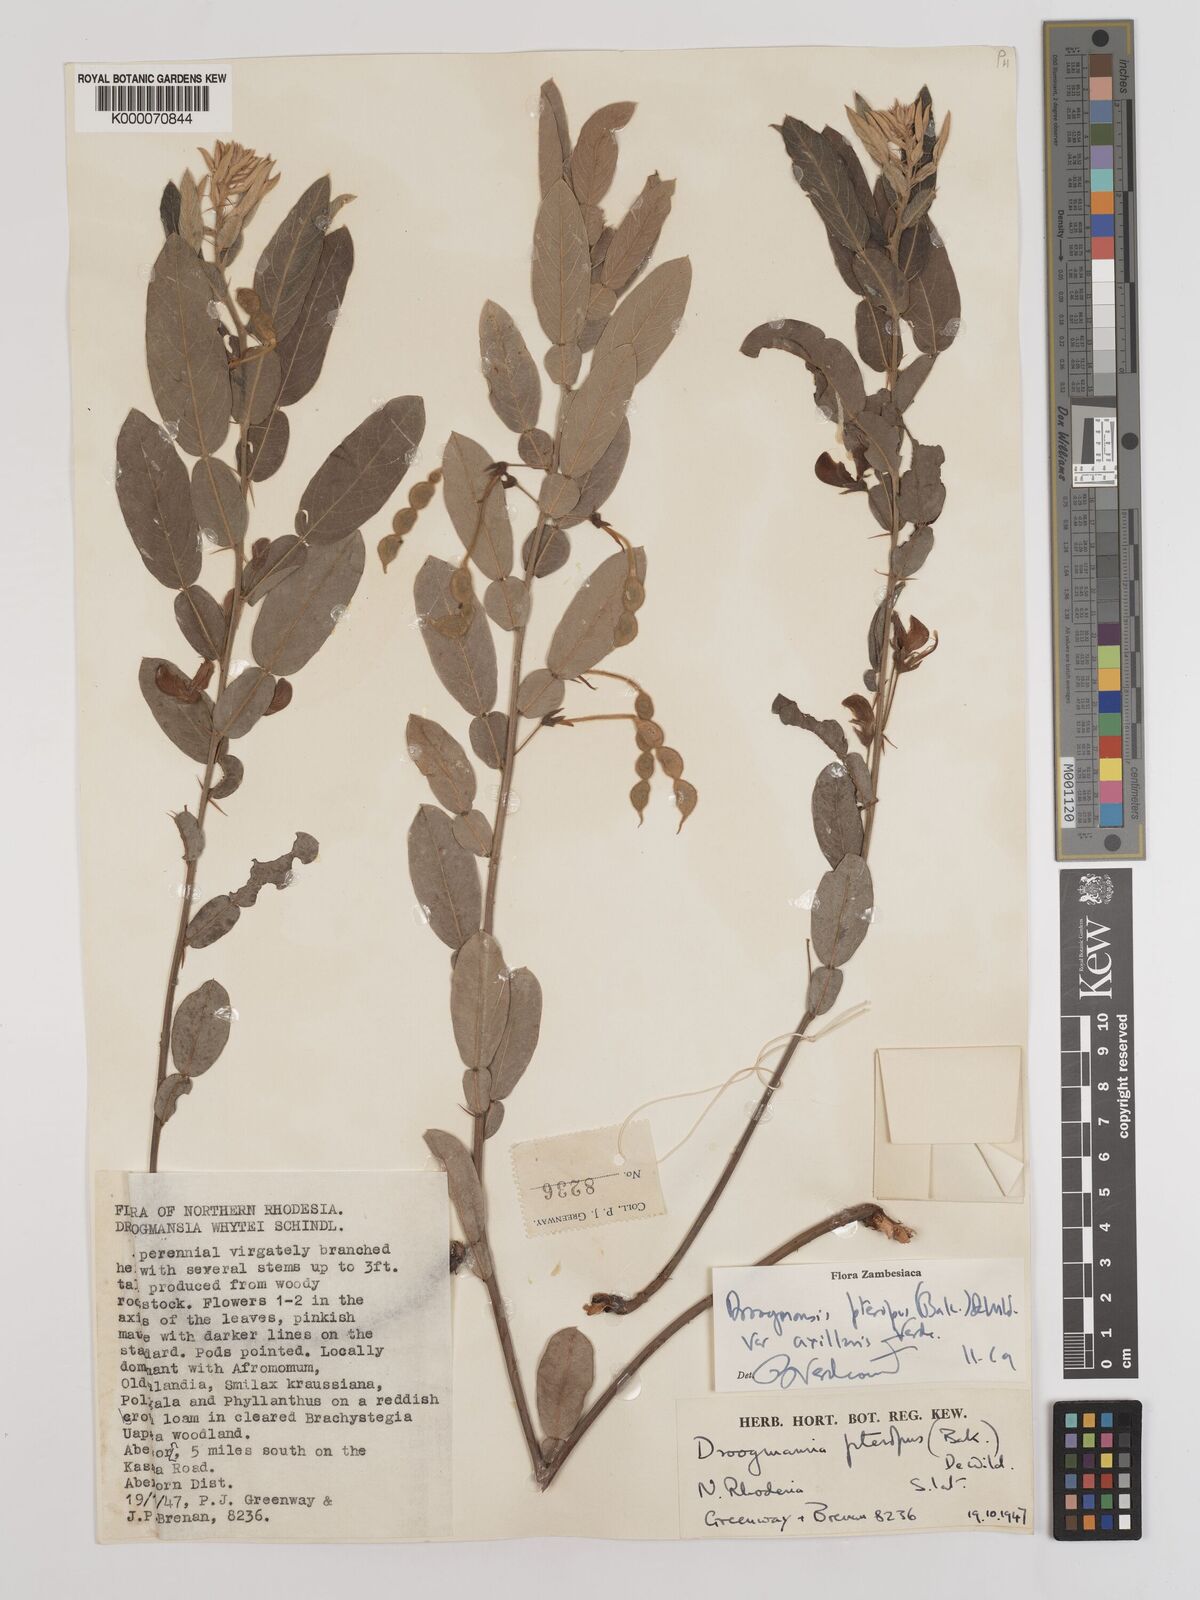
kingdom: Plantae
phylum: Tracheophyta
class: Magnoliopsida
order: Fabales
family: Fabaceae
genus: Droogmansia
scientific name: Droogmansia pteropus
